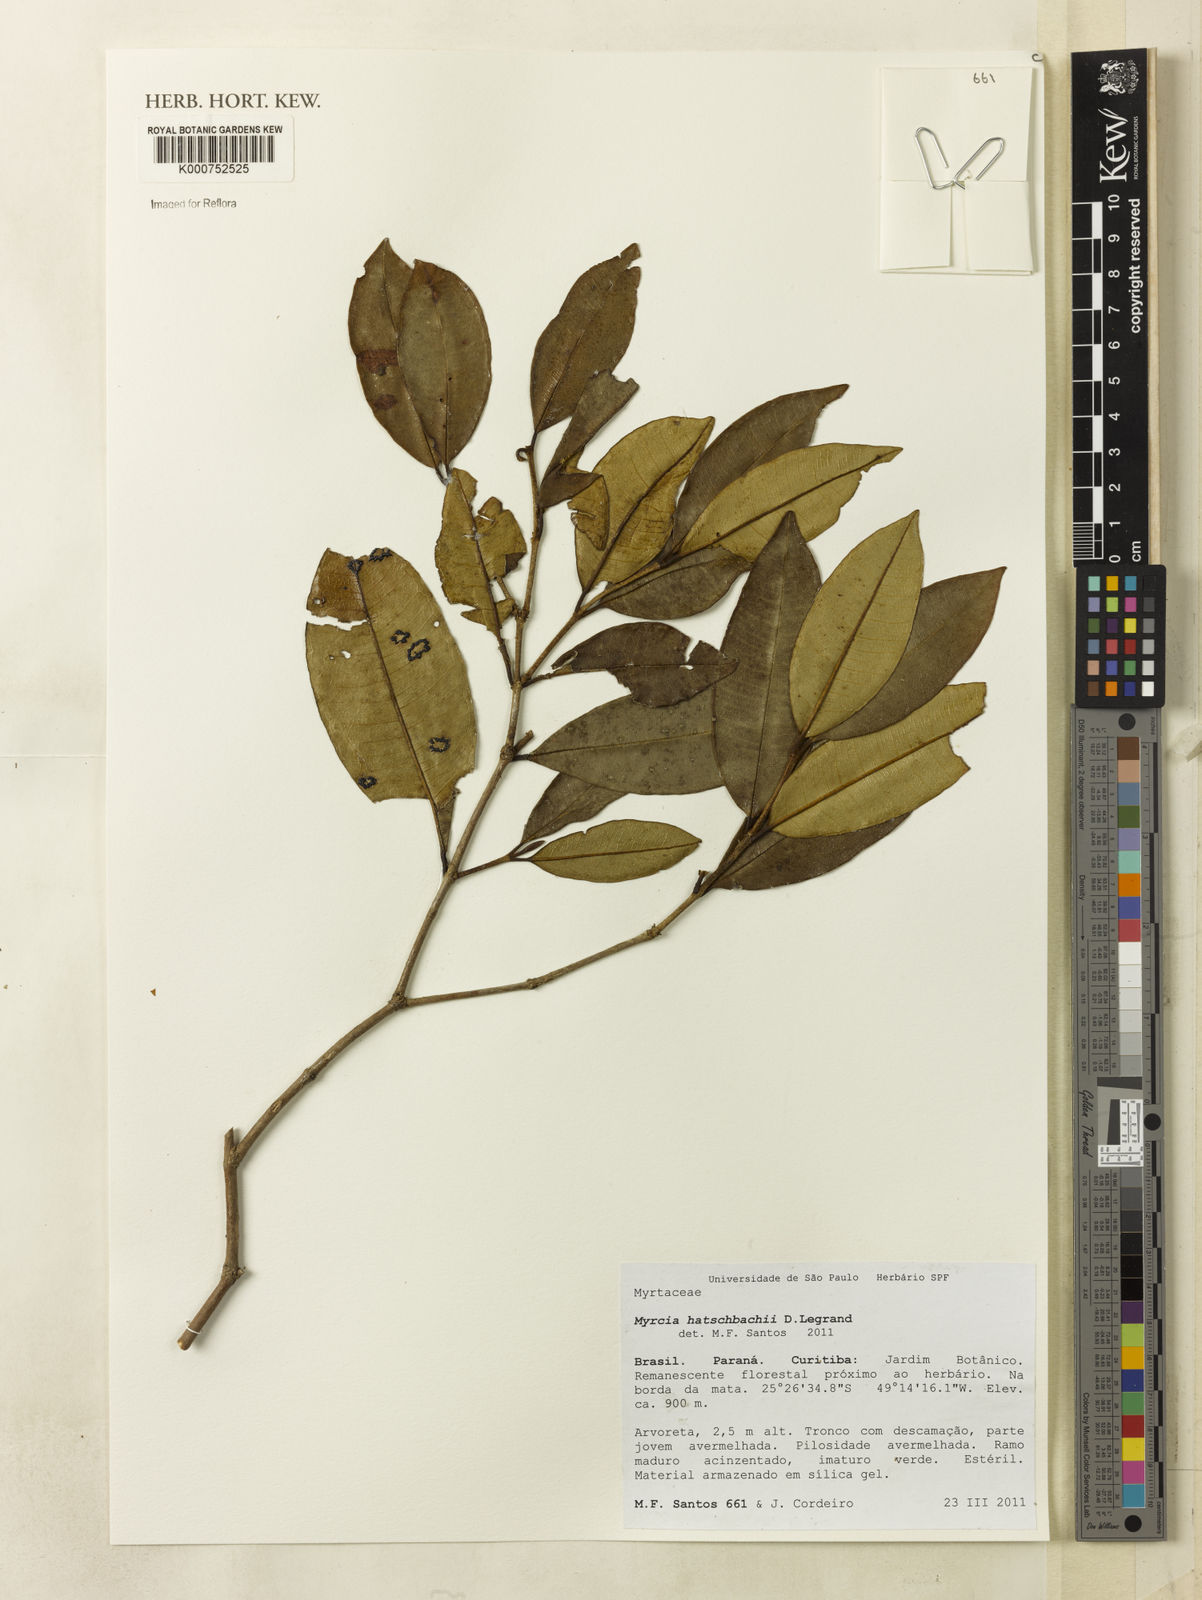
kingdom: Plantae
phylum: Tracheophyta
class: Magnoliopsida
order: Myrtales
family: Myrtaceae
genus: Myrcia
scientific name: Myrcia hatschbachii
